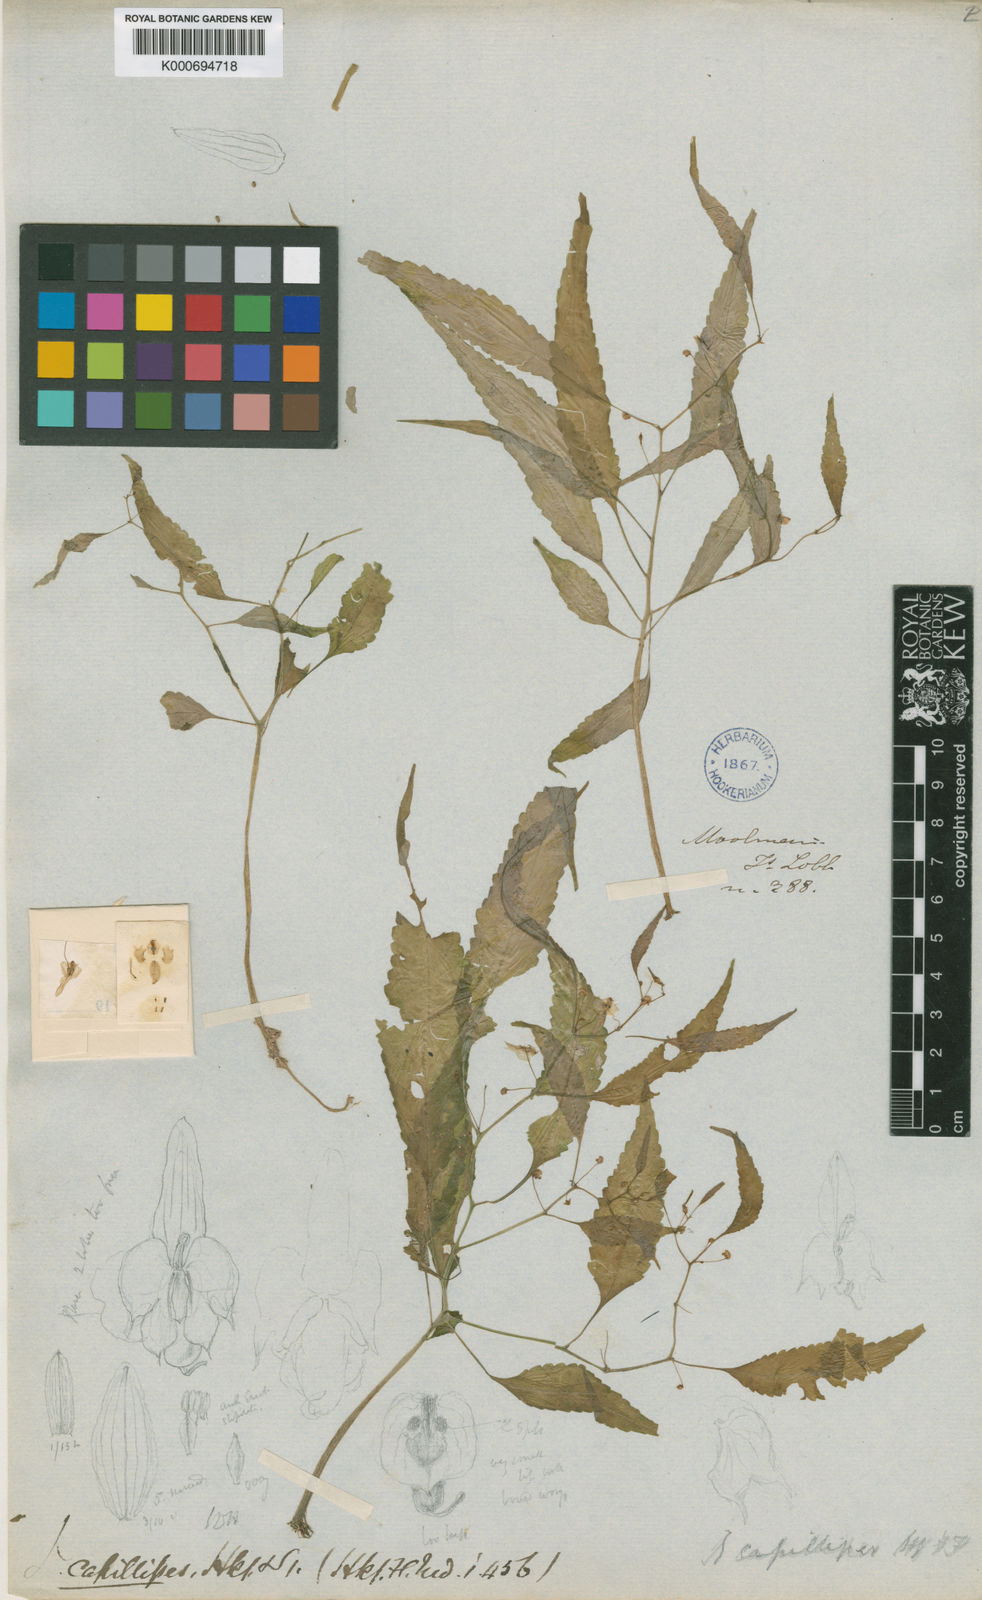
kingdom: Plantae
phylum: Tracheophyta
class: Magnoliopsida
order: Ericales
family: Balsaminaceae
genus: Impatiens
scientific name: Impatiens capillipes
